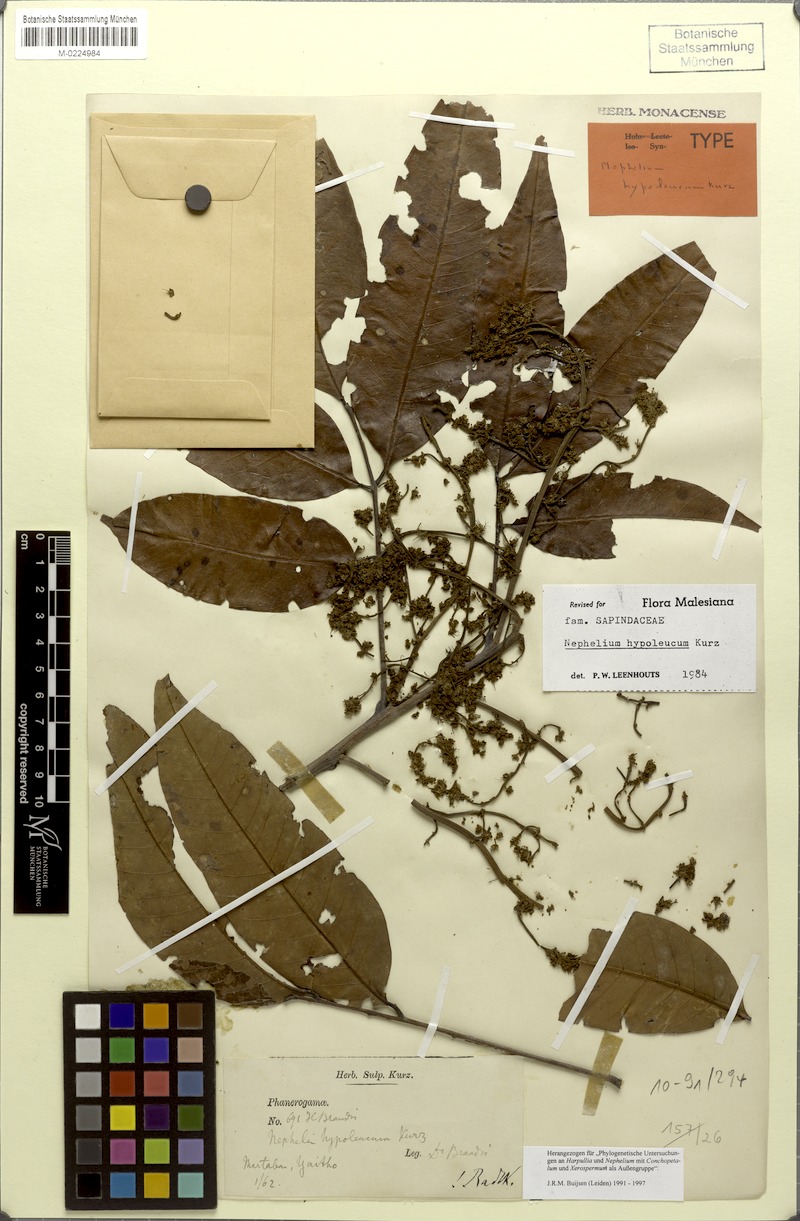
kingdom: Plantae
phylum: Tracheophyta
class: Magnoliopsida
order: Sapindales
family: Sapindaceae
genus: Nephelium
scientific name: Nephelium hypoleucum
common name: Korlan
